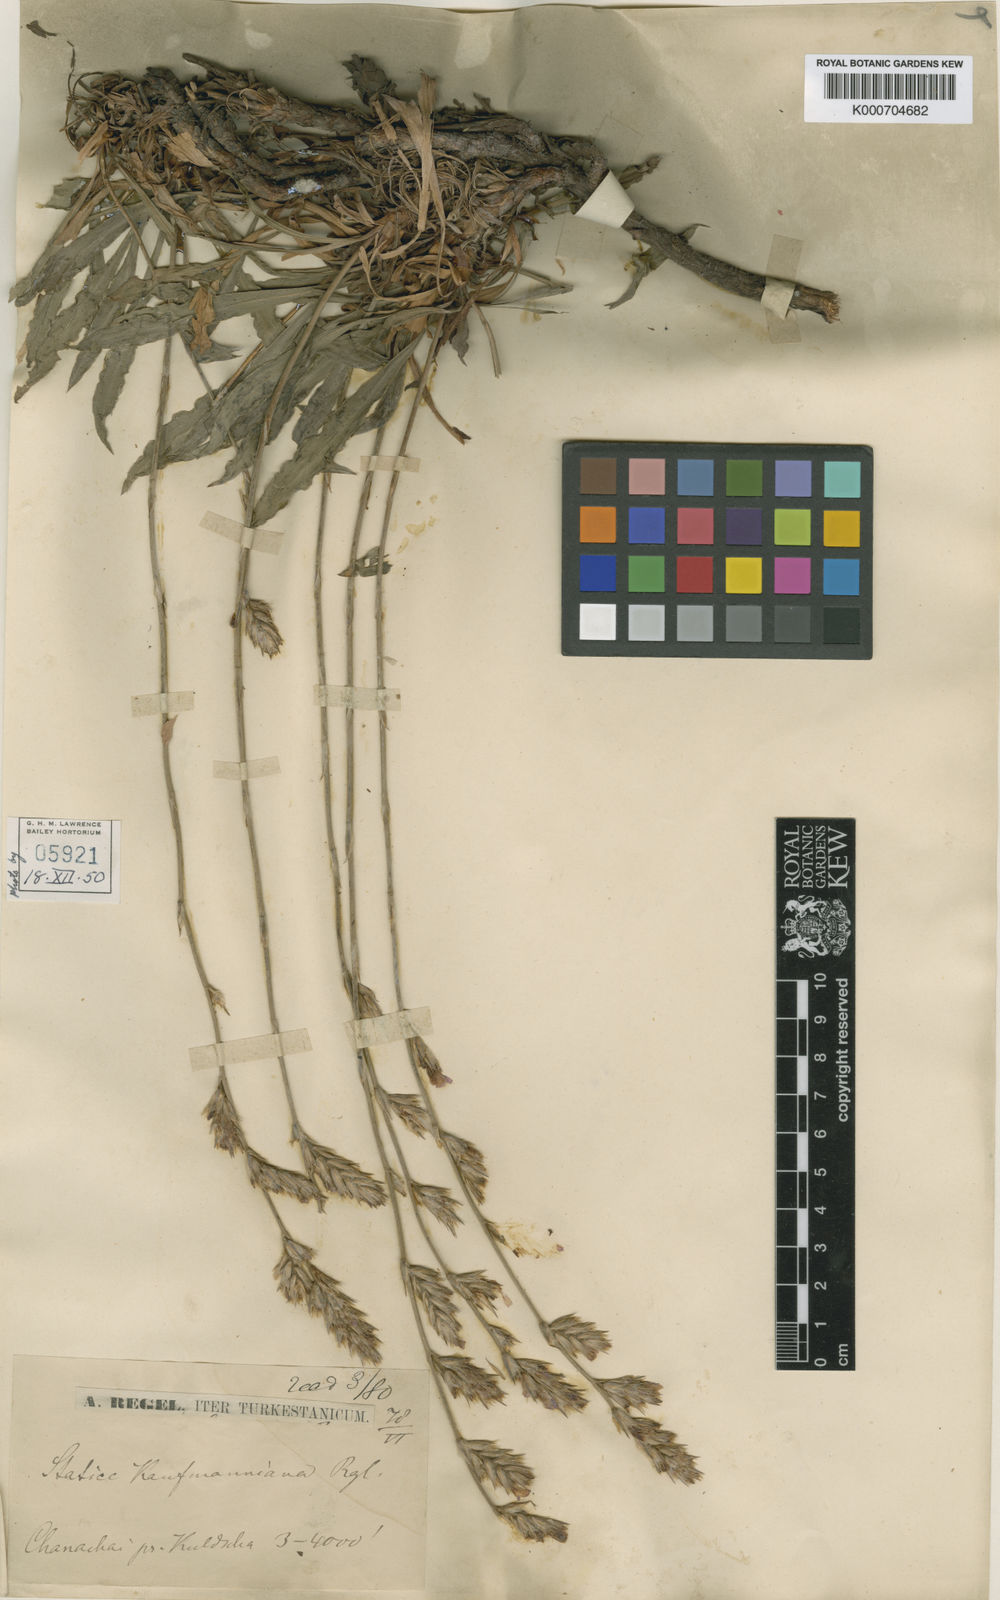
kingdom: Plantae
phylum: Tracheophyta
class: Magnoliopsida
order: Caryophyllales
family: Plumbaginaceae
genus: Ikonnikovia
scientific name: Ikonnikovia kaufmanniana
